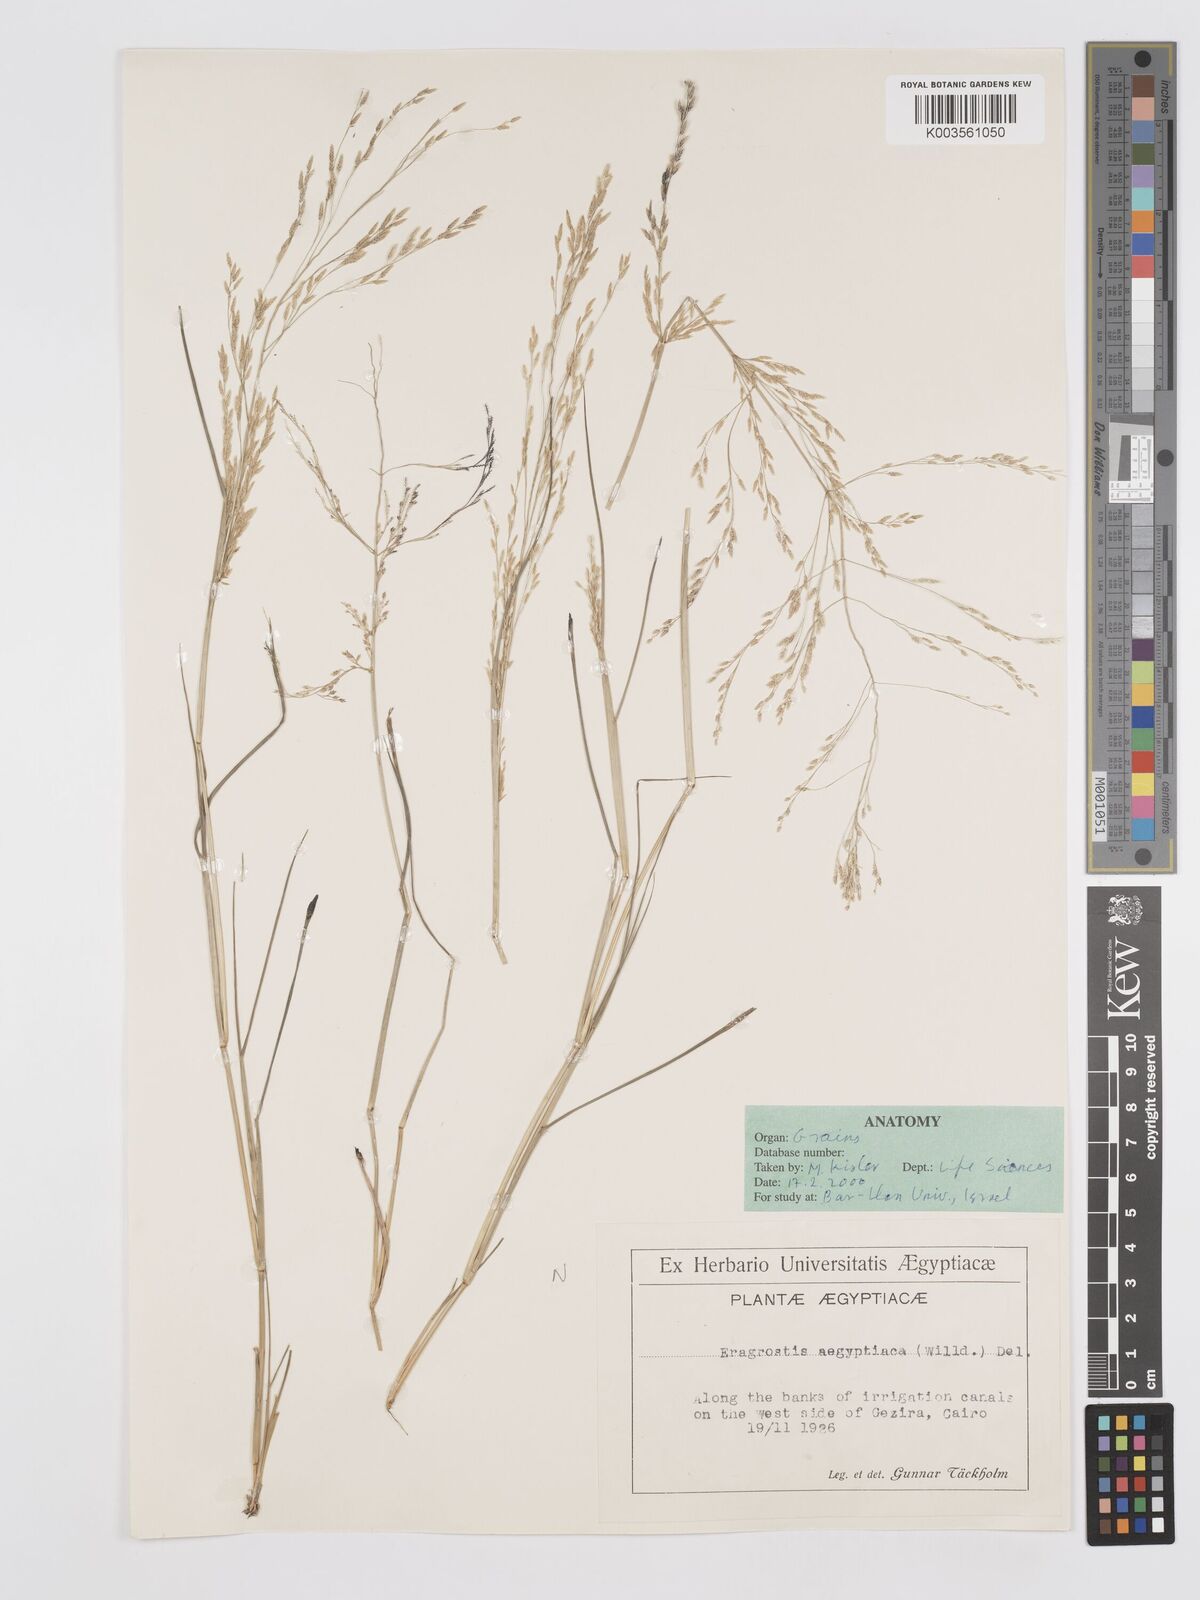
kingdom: Plantae
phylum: Tracheophyta
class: Liliopsida
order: Poales
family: Poaceae
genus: Eragrostis
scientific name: Eragrostis aegyptiaca
